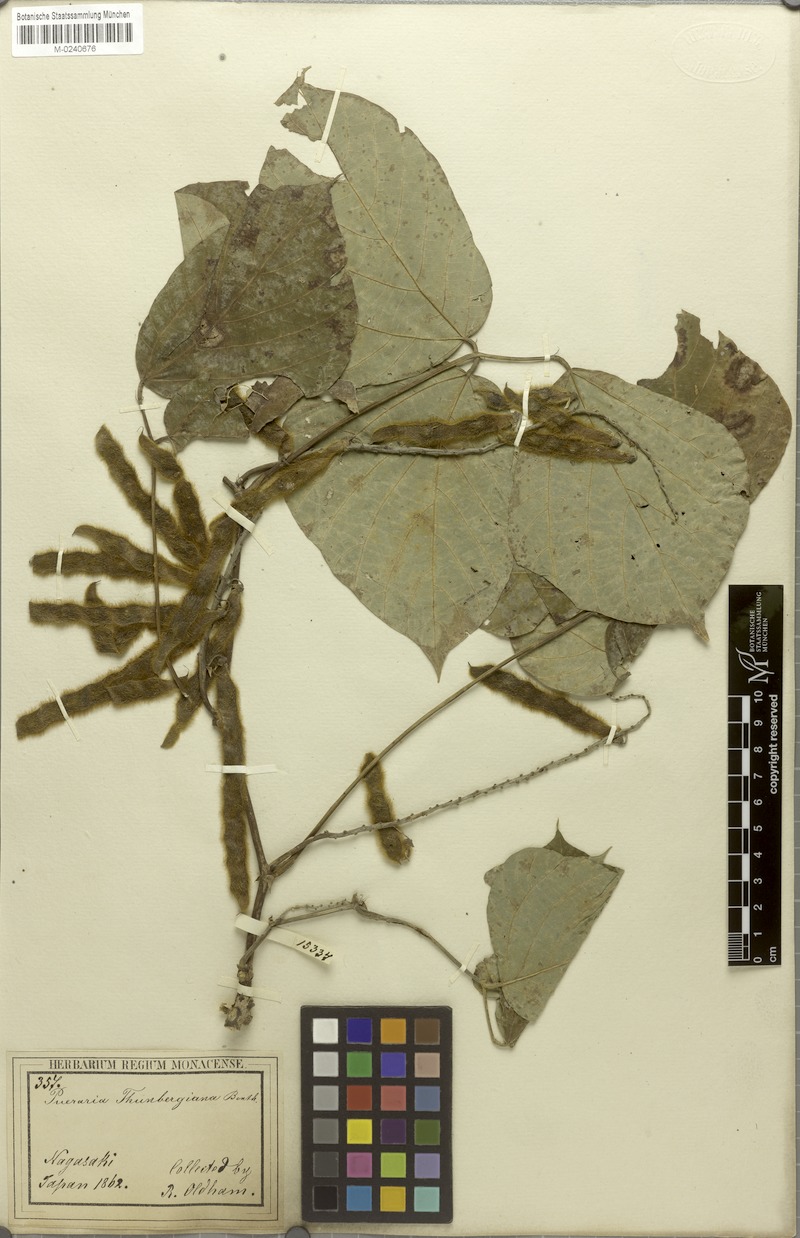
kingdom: Plantae
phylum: Tracheophyta
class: Magnoliopsida
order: Fabales
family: Fabaceae
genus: Pueraria
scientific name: Pueraria montana
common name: Kudzu
